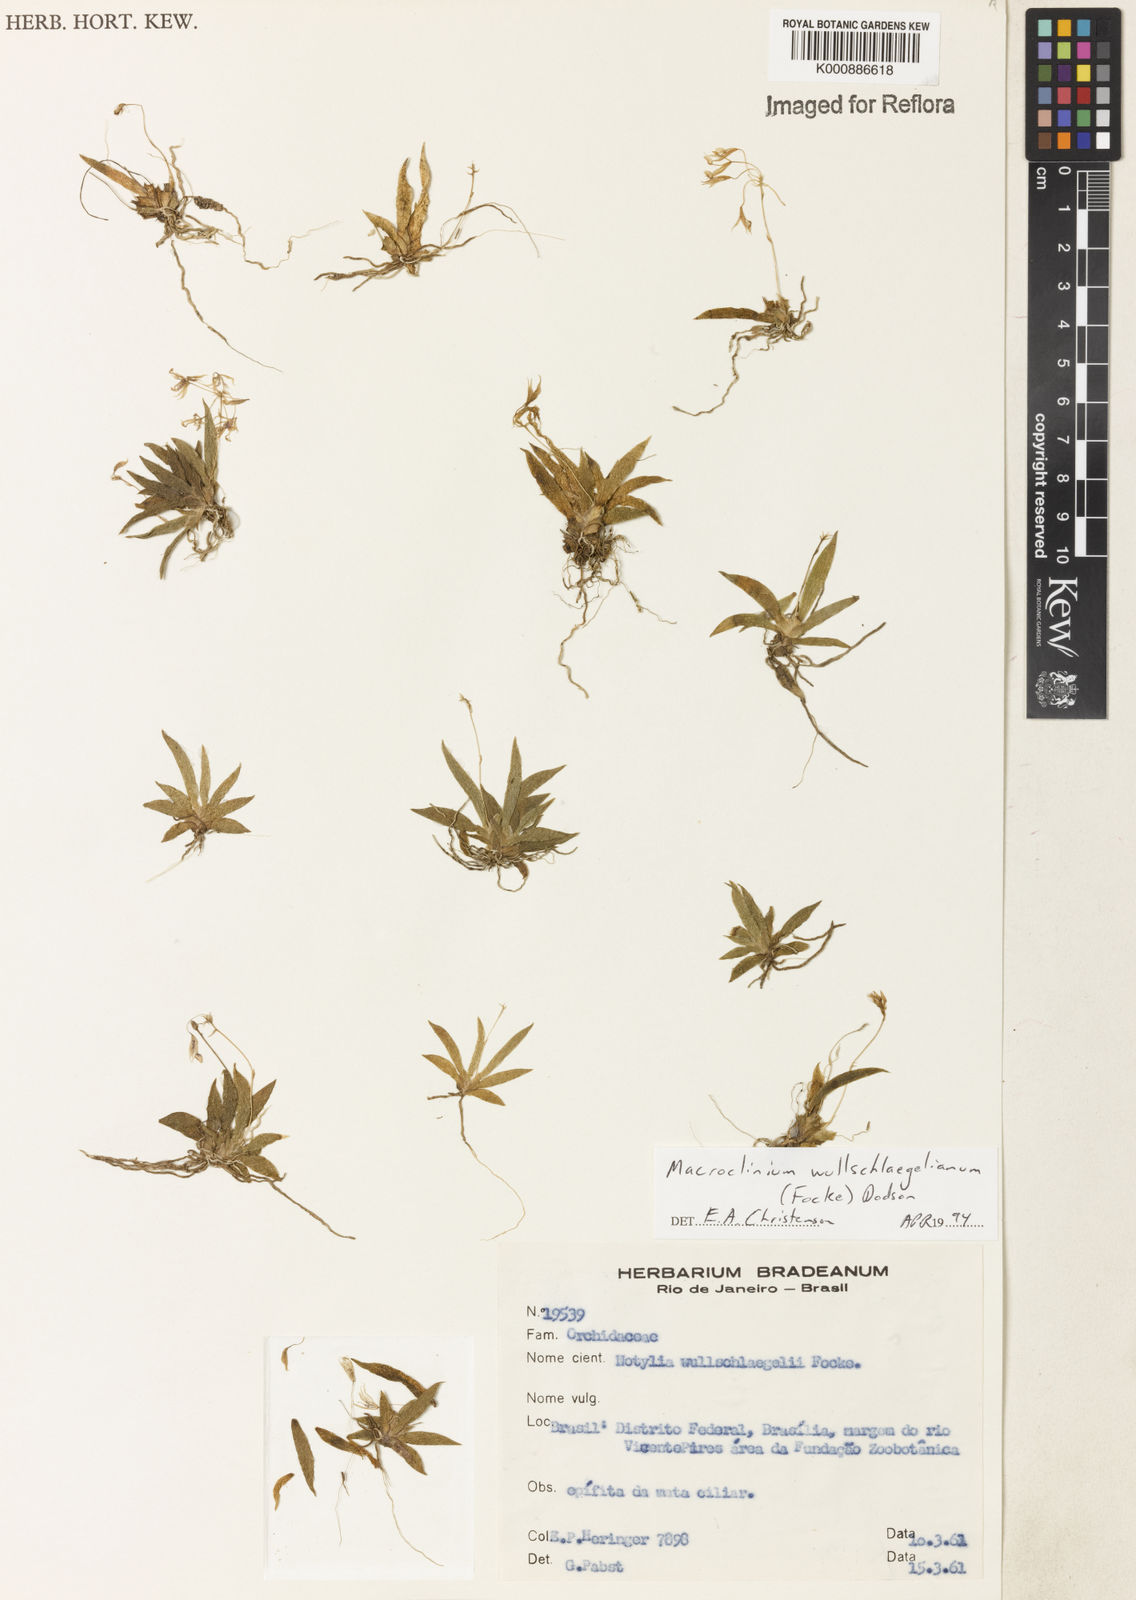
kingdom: Plantae
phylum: Tracheophyta
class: Liliopsida
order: Asparagales
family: Orchidaceae
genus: Macroclinium
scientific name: Macroclinium wullschlaegelianum
